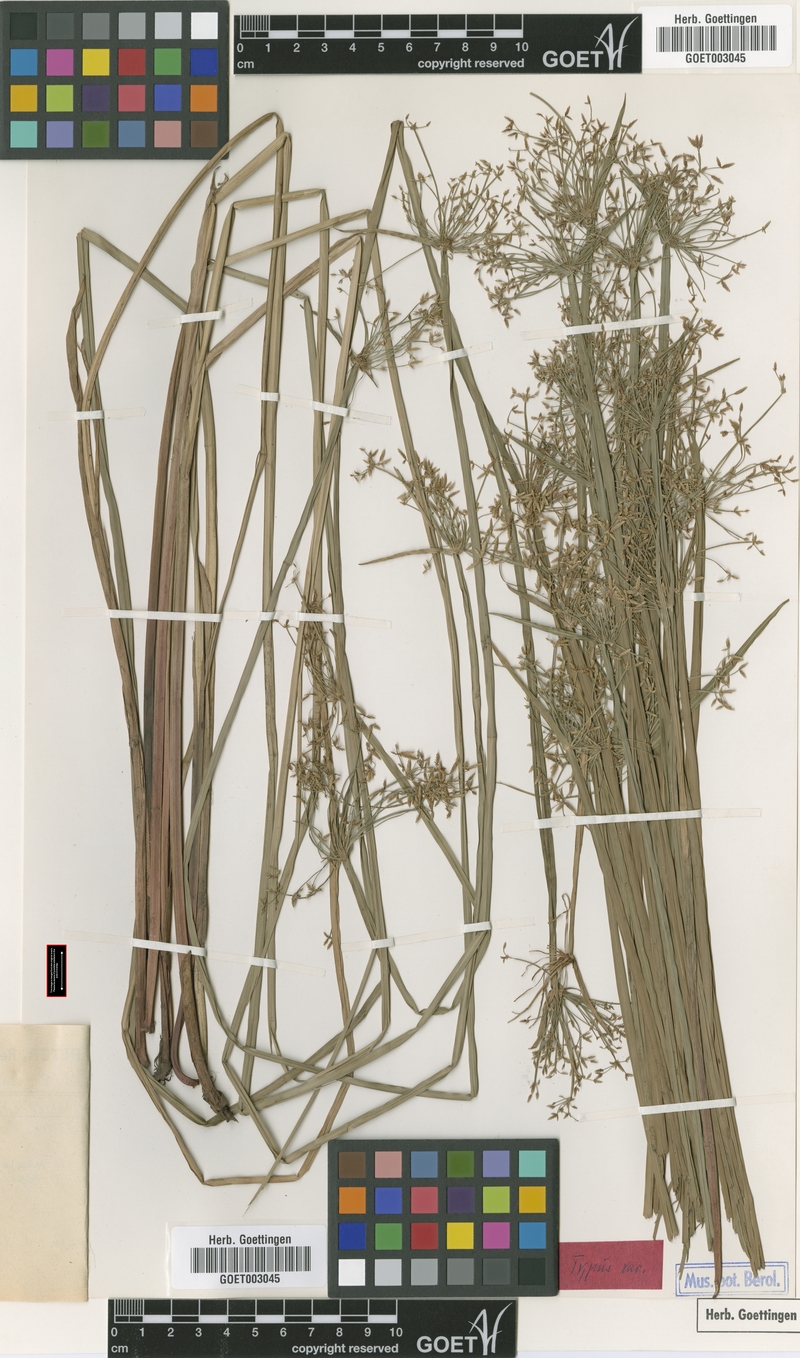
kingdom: Plantae
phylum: Tracheophyta
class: Liliopsida
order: Poales
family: Cyperaceae
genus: Cyperus
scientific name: Cyperus denudatus
